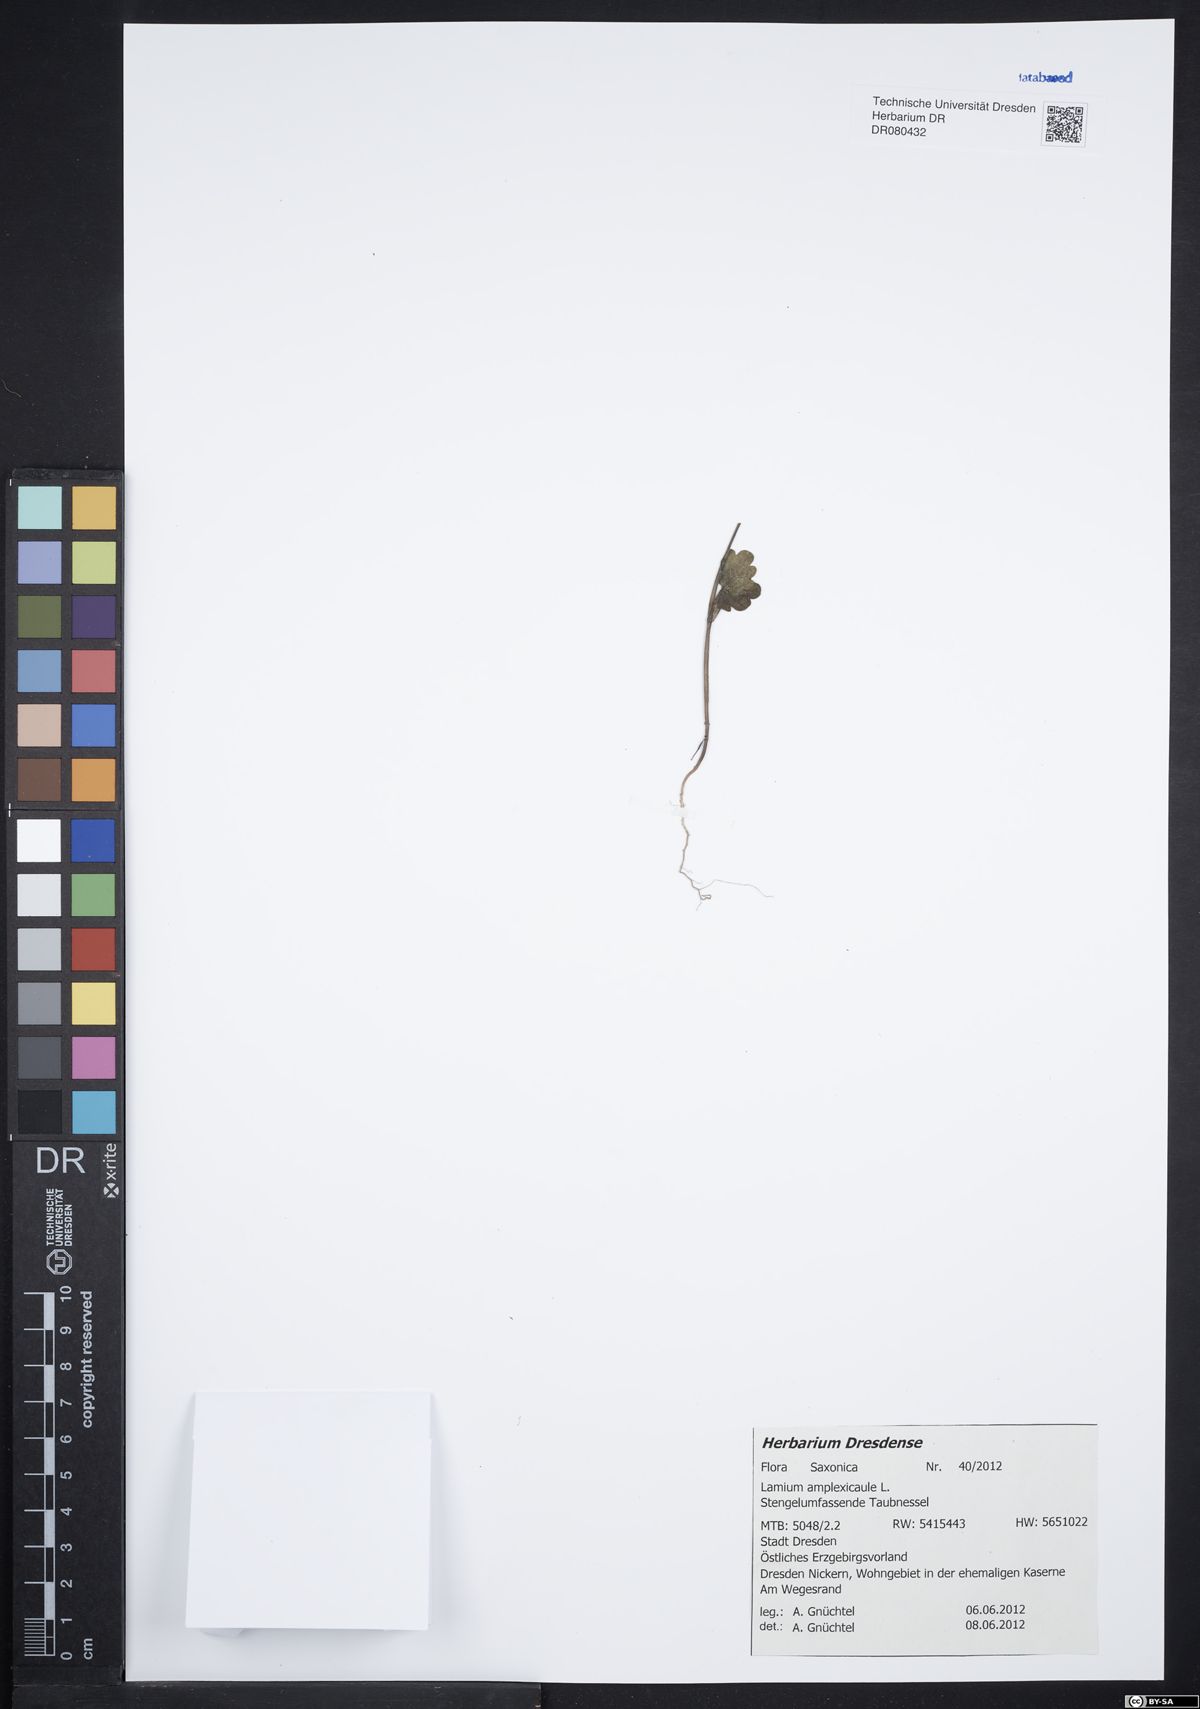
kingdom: Plantae
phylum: Tracheophyta
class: Magnoliopsida
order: Lamiales
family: Lamiaceae
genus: Lamium
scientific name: Lamium amplexicaule
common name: Henbit dead-nettle
